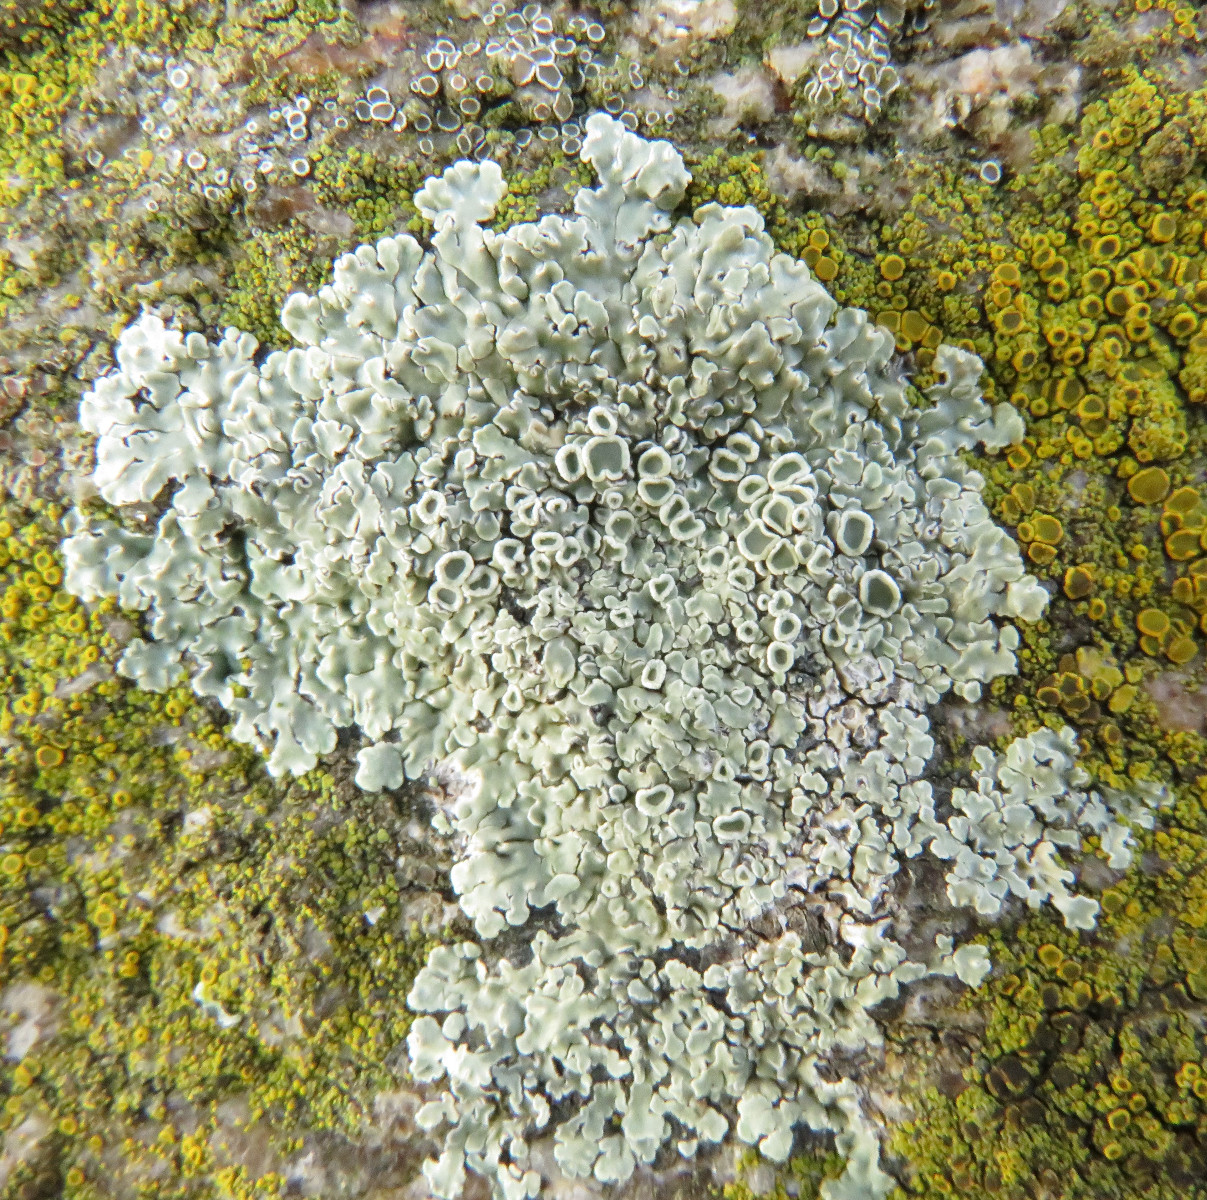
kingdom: Fungi
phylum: Ascomycota
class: Lecanoromycetes
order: Lecanorales
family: Lecanoraceae
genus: Protoparmeliopsis
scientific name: Protoparmeliopsis muralis
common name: randfliget kantskivelav
